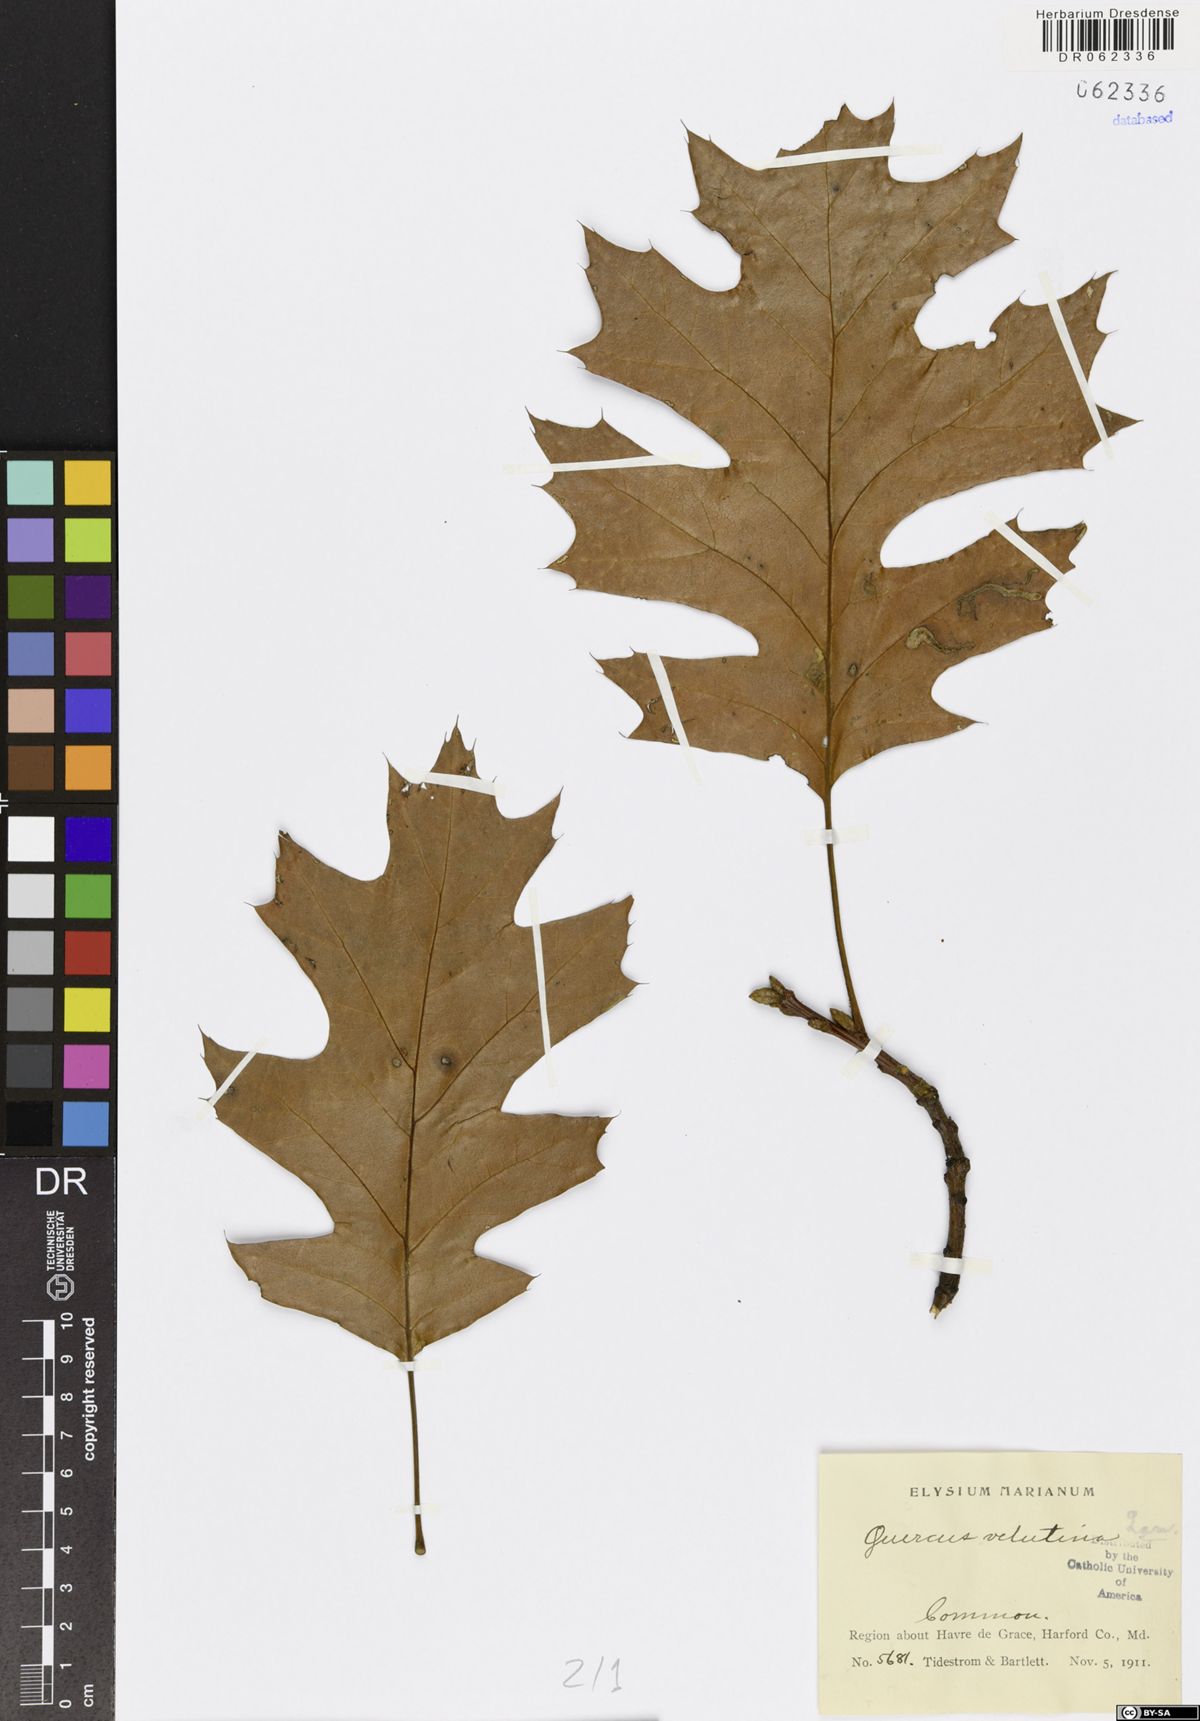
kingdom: Plantae
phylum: Tracheophyta
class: Magnoliopsida
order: Fagales
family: Fagaceae
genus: Quercus
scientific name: Quercus velutina
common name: Black oak
